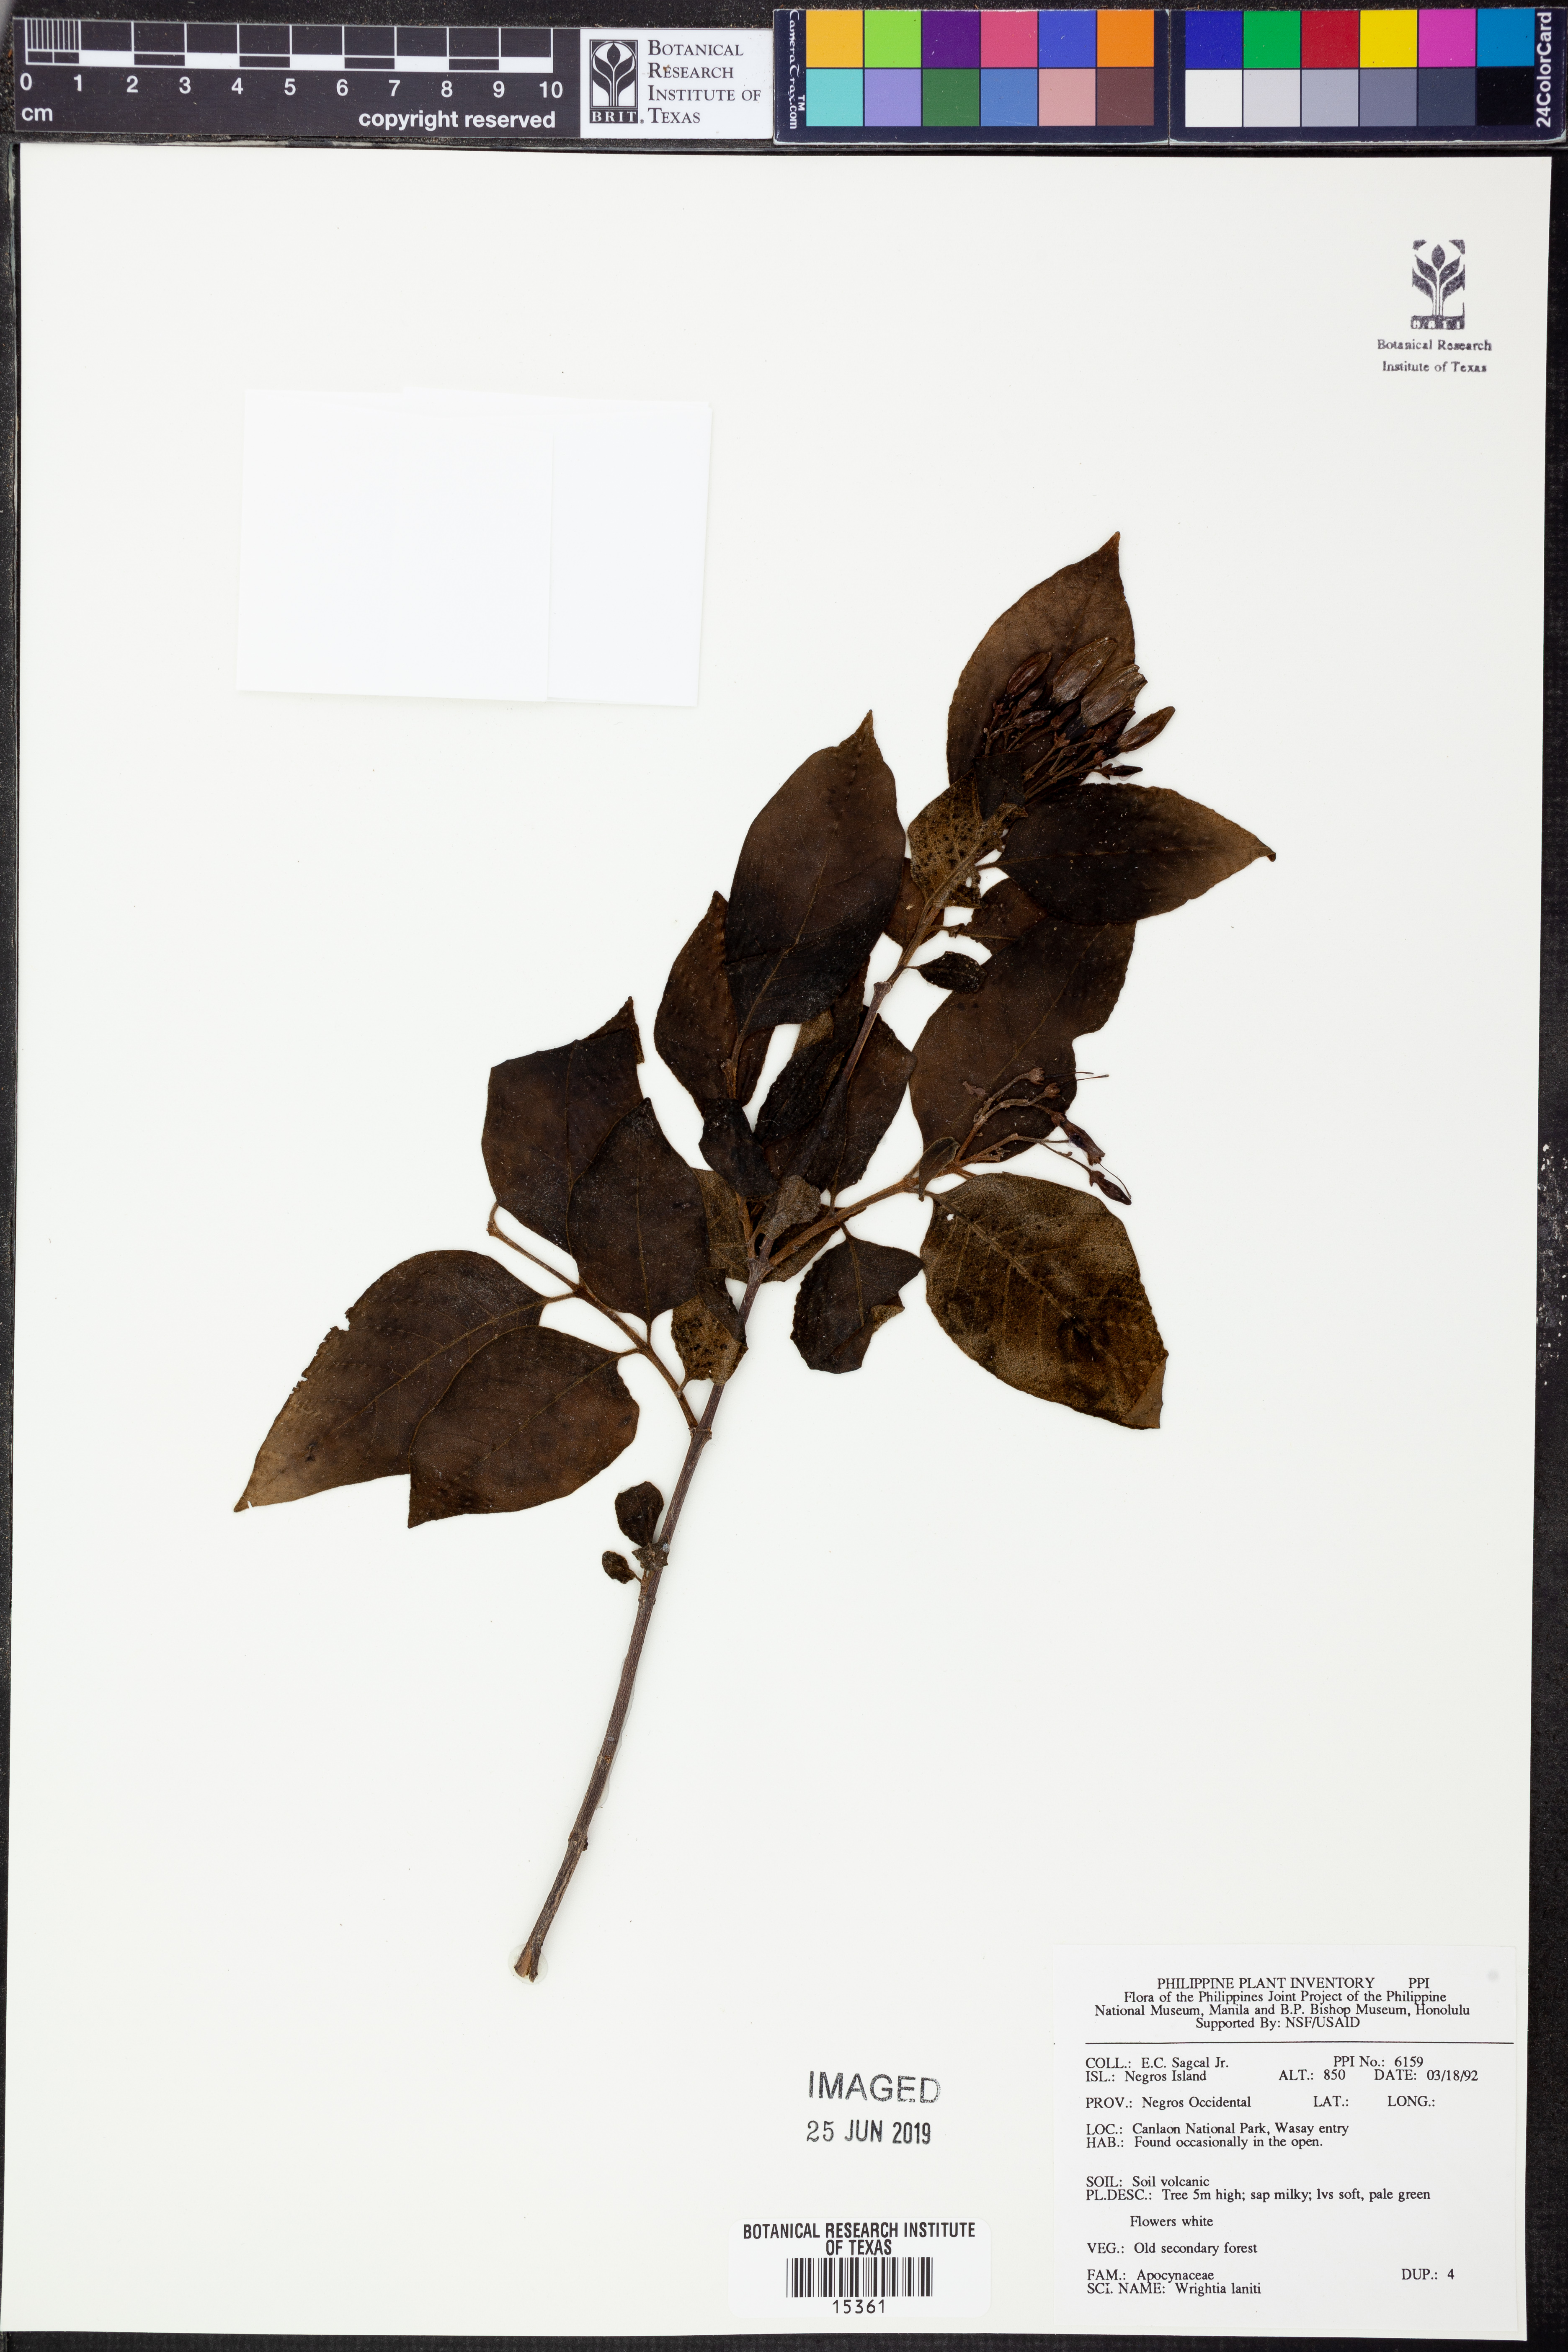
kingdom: Plantae
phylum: Tracheophyta
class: Magnoliopsida
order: Gentianales
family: Apocynaceae
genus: Wrightia
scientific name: Wrightia pubescens
